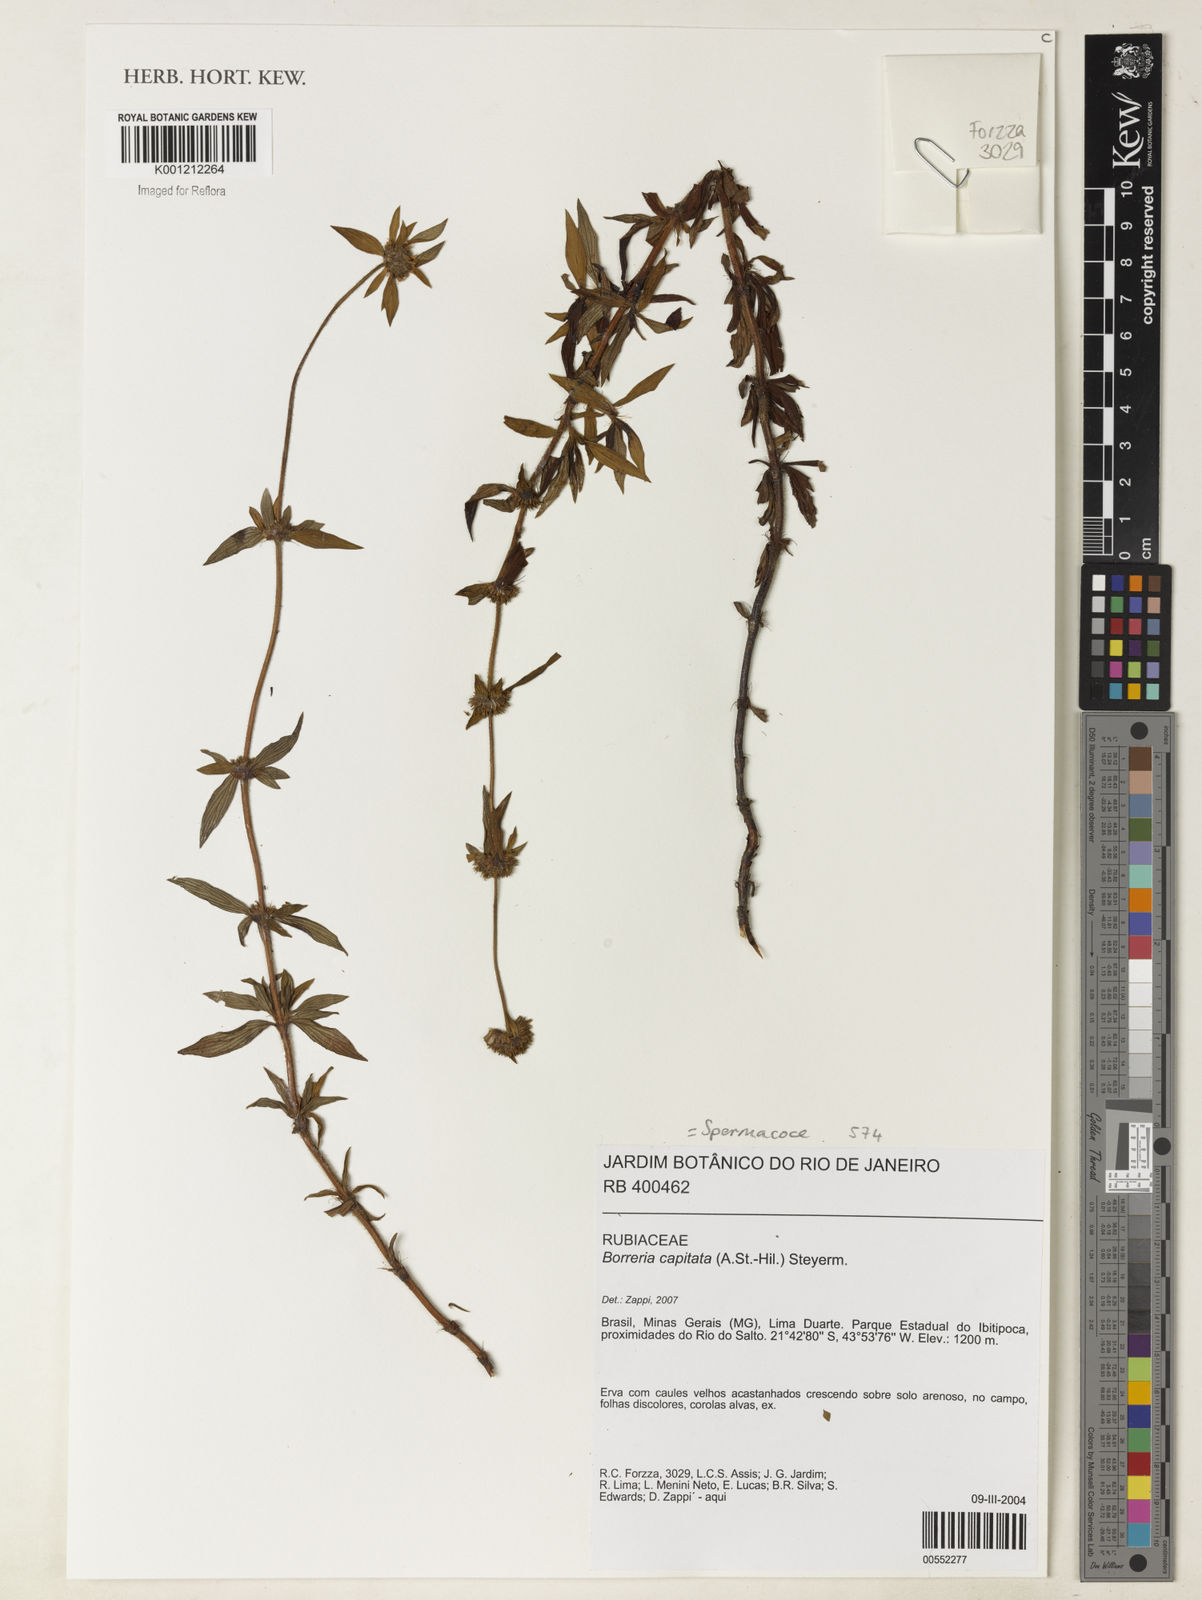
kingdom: Plantae
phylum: Tracheophyta
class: Magnoliopsida
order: Gentianales
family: Rubiaceae
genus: Spermacoce
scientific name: Spermacoce capitata
